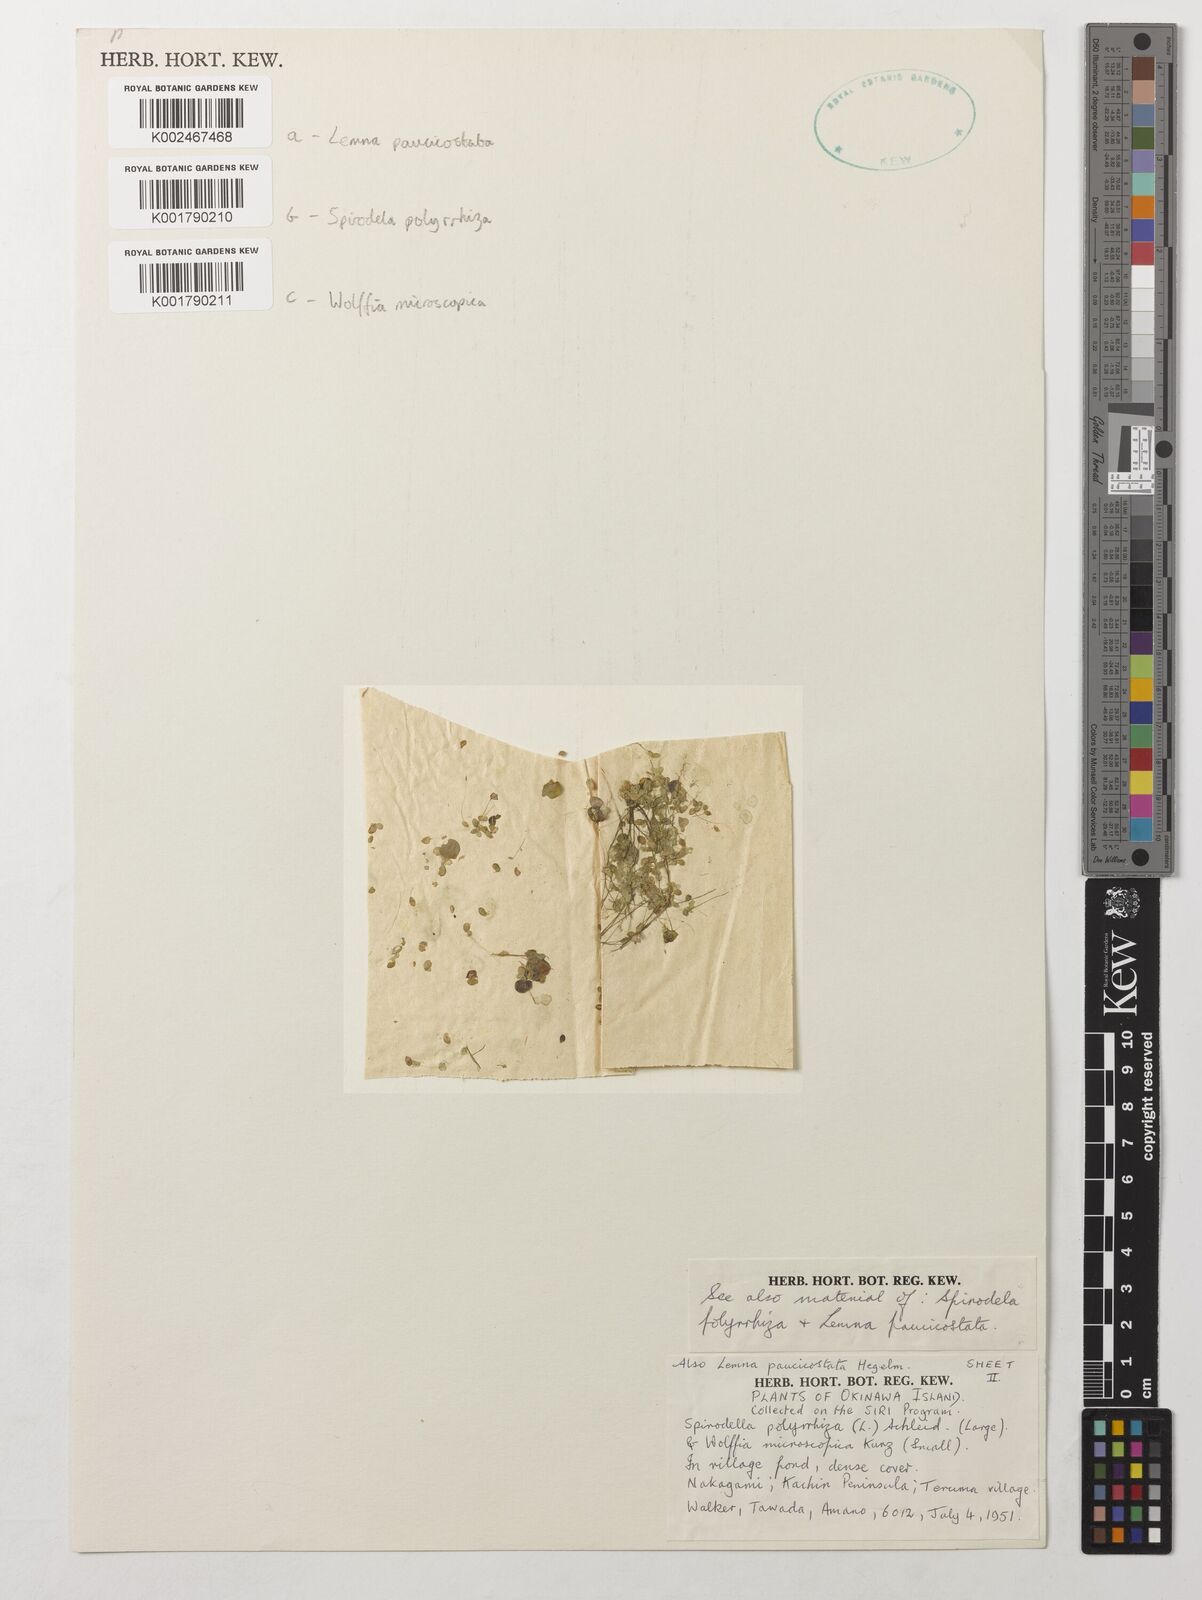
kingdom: Plantae
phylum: Tracheophyta
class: Liliopsida
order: Alismatales
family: Araceae
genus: Wolffia
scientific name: Wolffia microscopica
